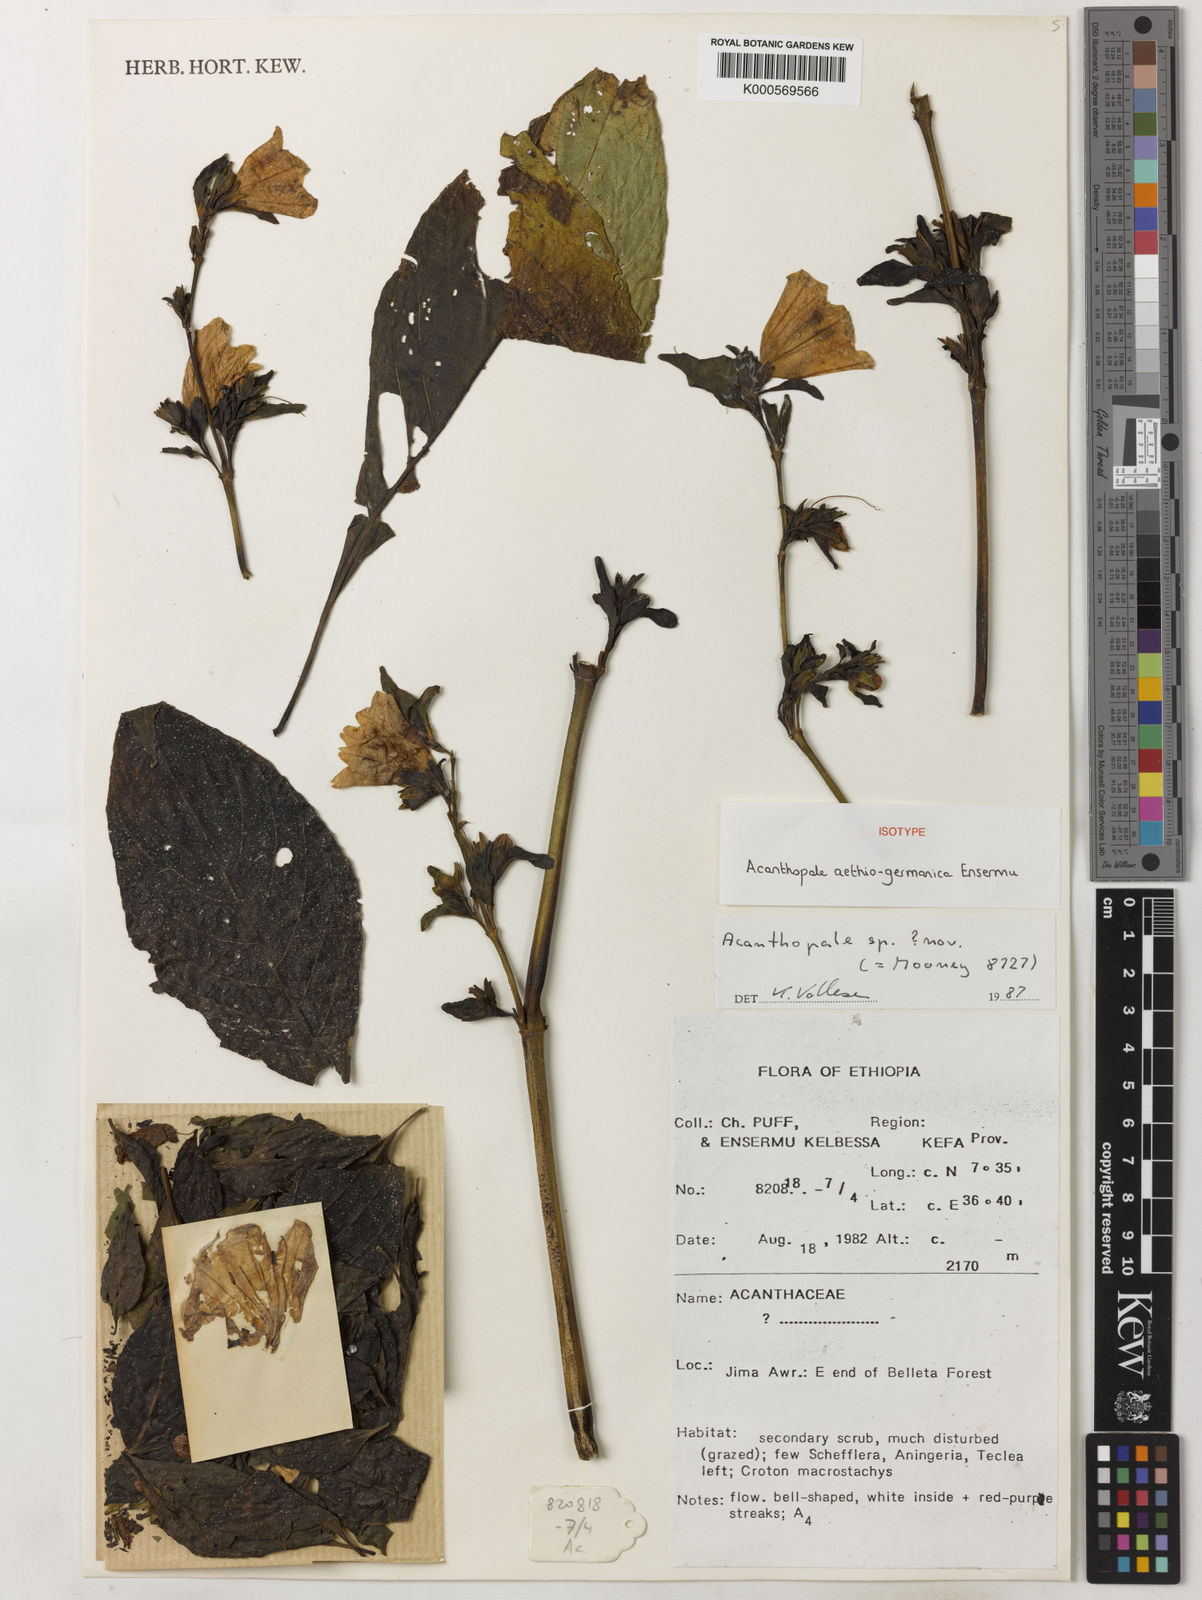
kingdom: Plantae
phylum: Tracheophyta
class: Magnoliopsida
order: Lamiales
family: Acanthaceae
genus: Acanthopale
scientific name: Acanthopale aethiogermanica
